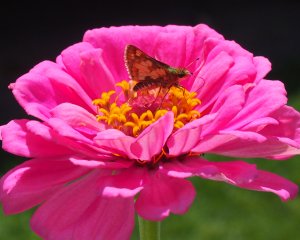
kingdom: Animalia
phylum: Arthropoda
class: Insecta
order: Lepidoptera
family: Hesperiidae
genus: Polites
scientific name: Polites coras
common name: Peck's Skipper
